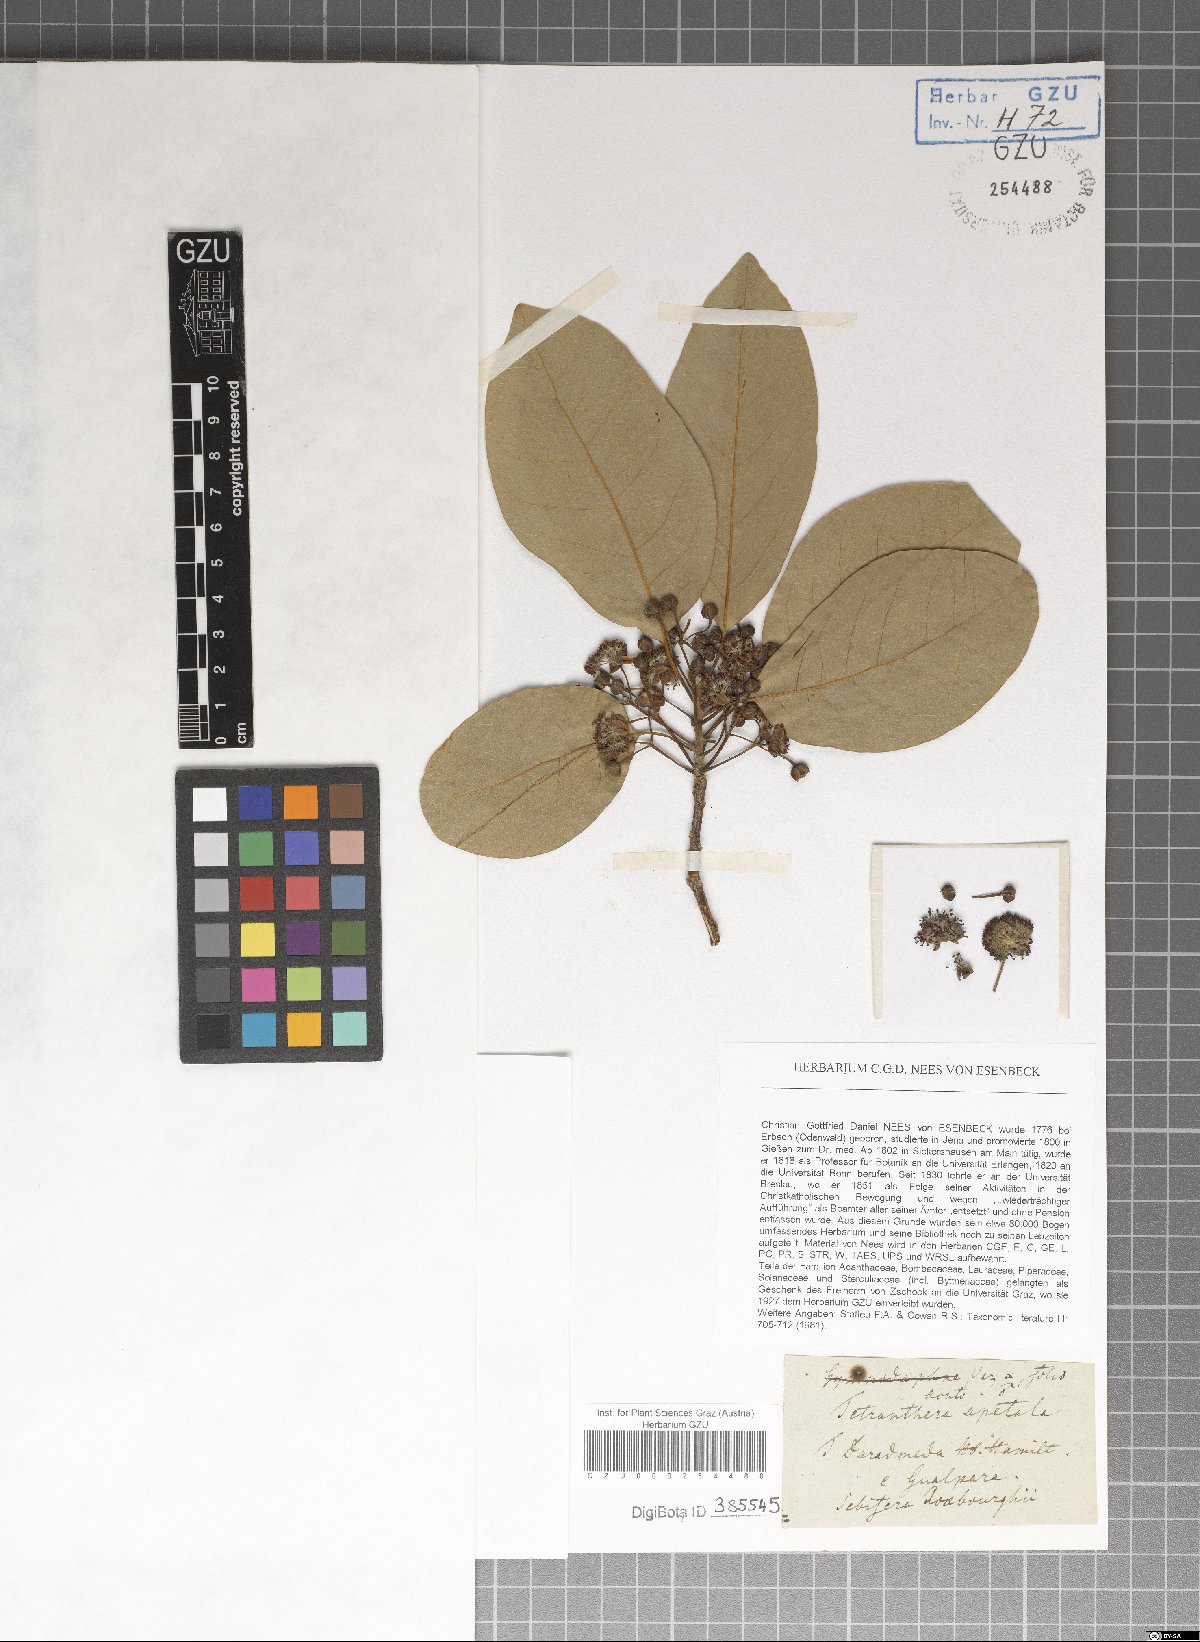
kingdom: Plantae
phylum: Tracheophyta
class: Magnoliopsida
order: Laurales
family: Lauraceae
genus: Litsea
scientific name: Litsea glutinosa
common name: Indian-laurel
